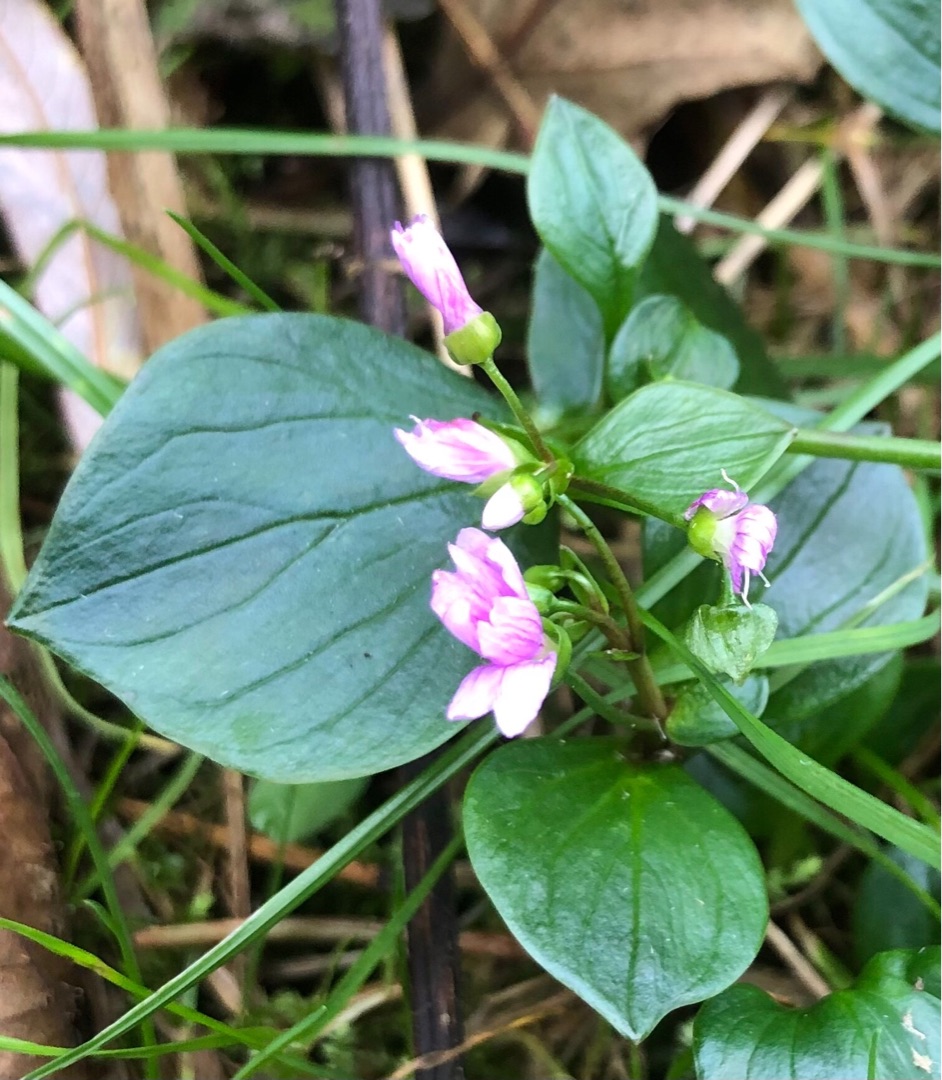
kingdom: Plantae
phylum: Tracheophyta
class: Magnoliopsida
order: Caryophyllales
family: Montiaceae
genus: Claytonia
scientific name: Claytonia sibirica
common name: Sibirisk vinterportulak
